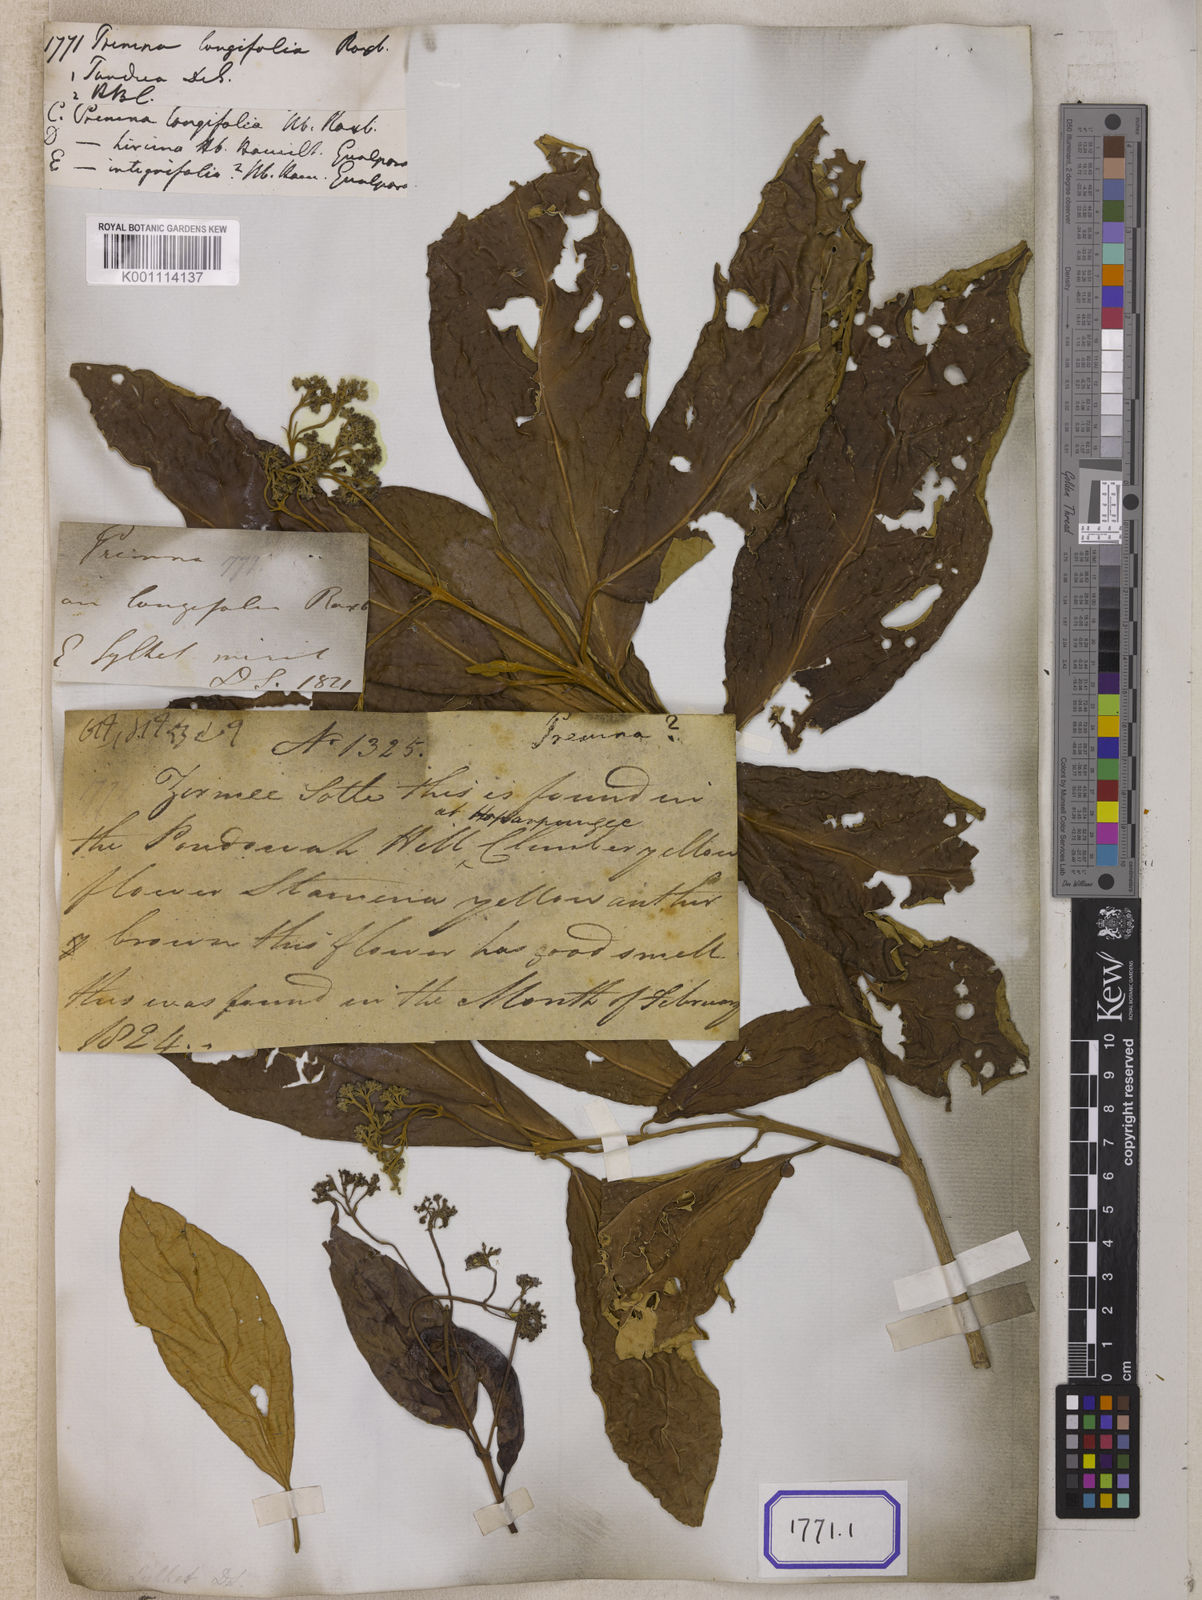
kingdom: Plantae
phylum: Tracheophyta
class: Magnoliopsida
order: Lamiales
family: Lamiaceae
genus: Premna
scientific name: Premna
